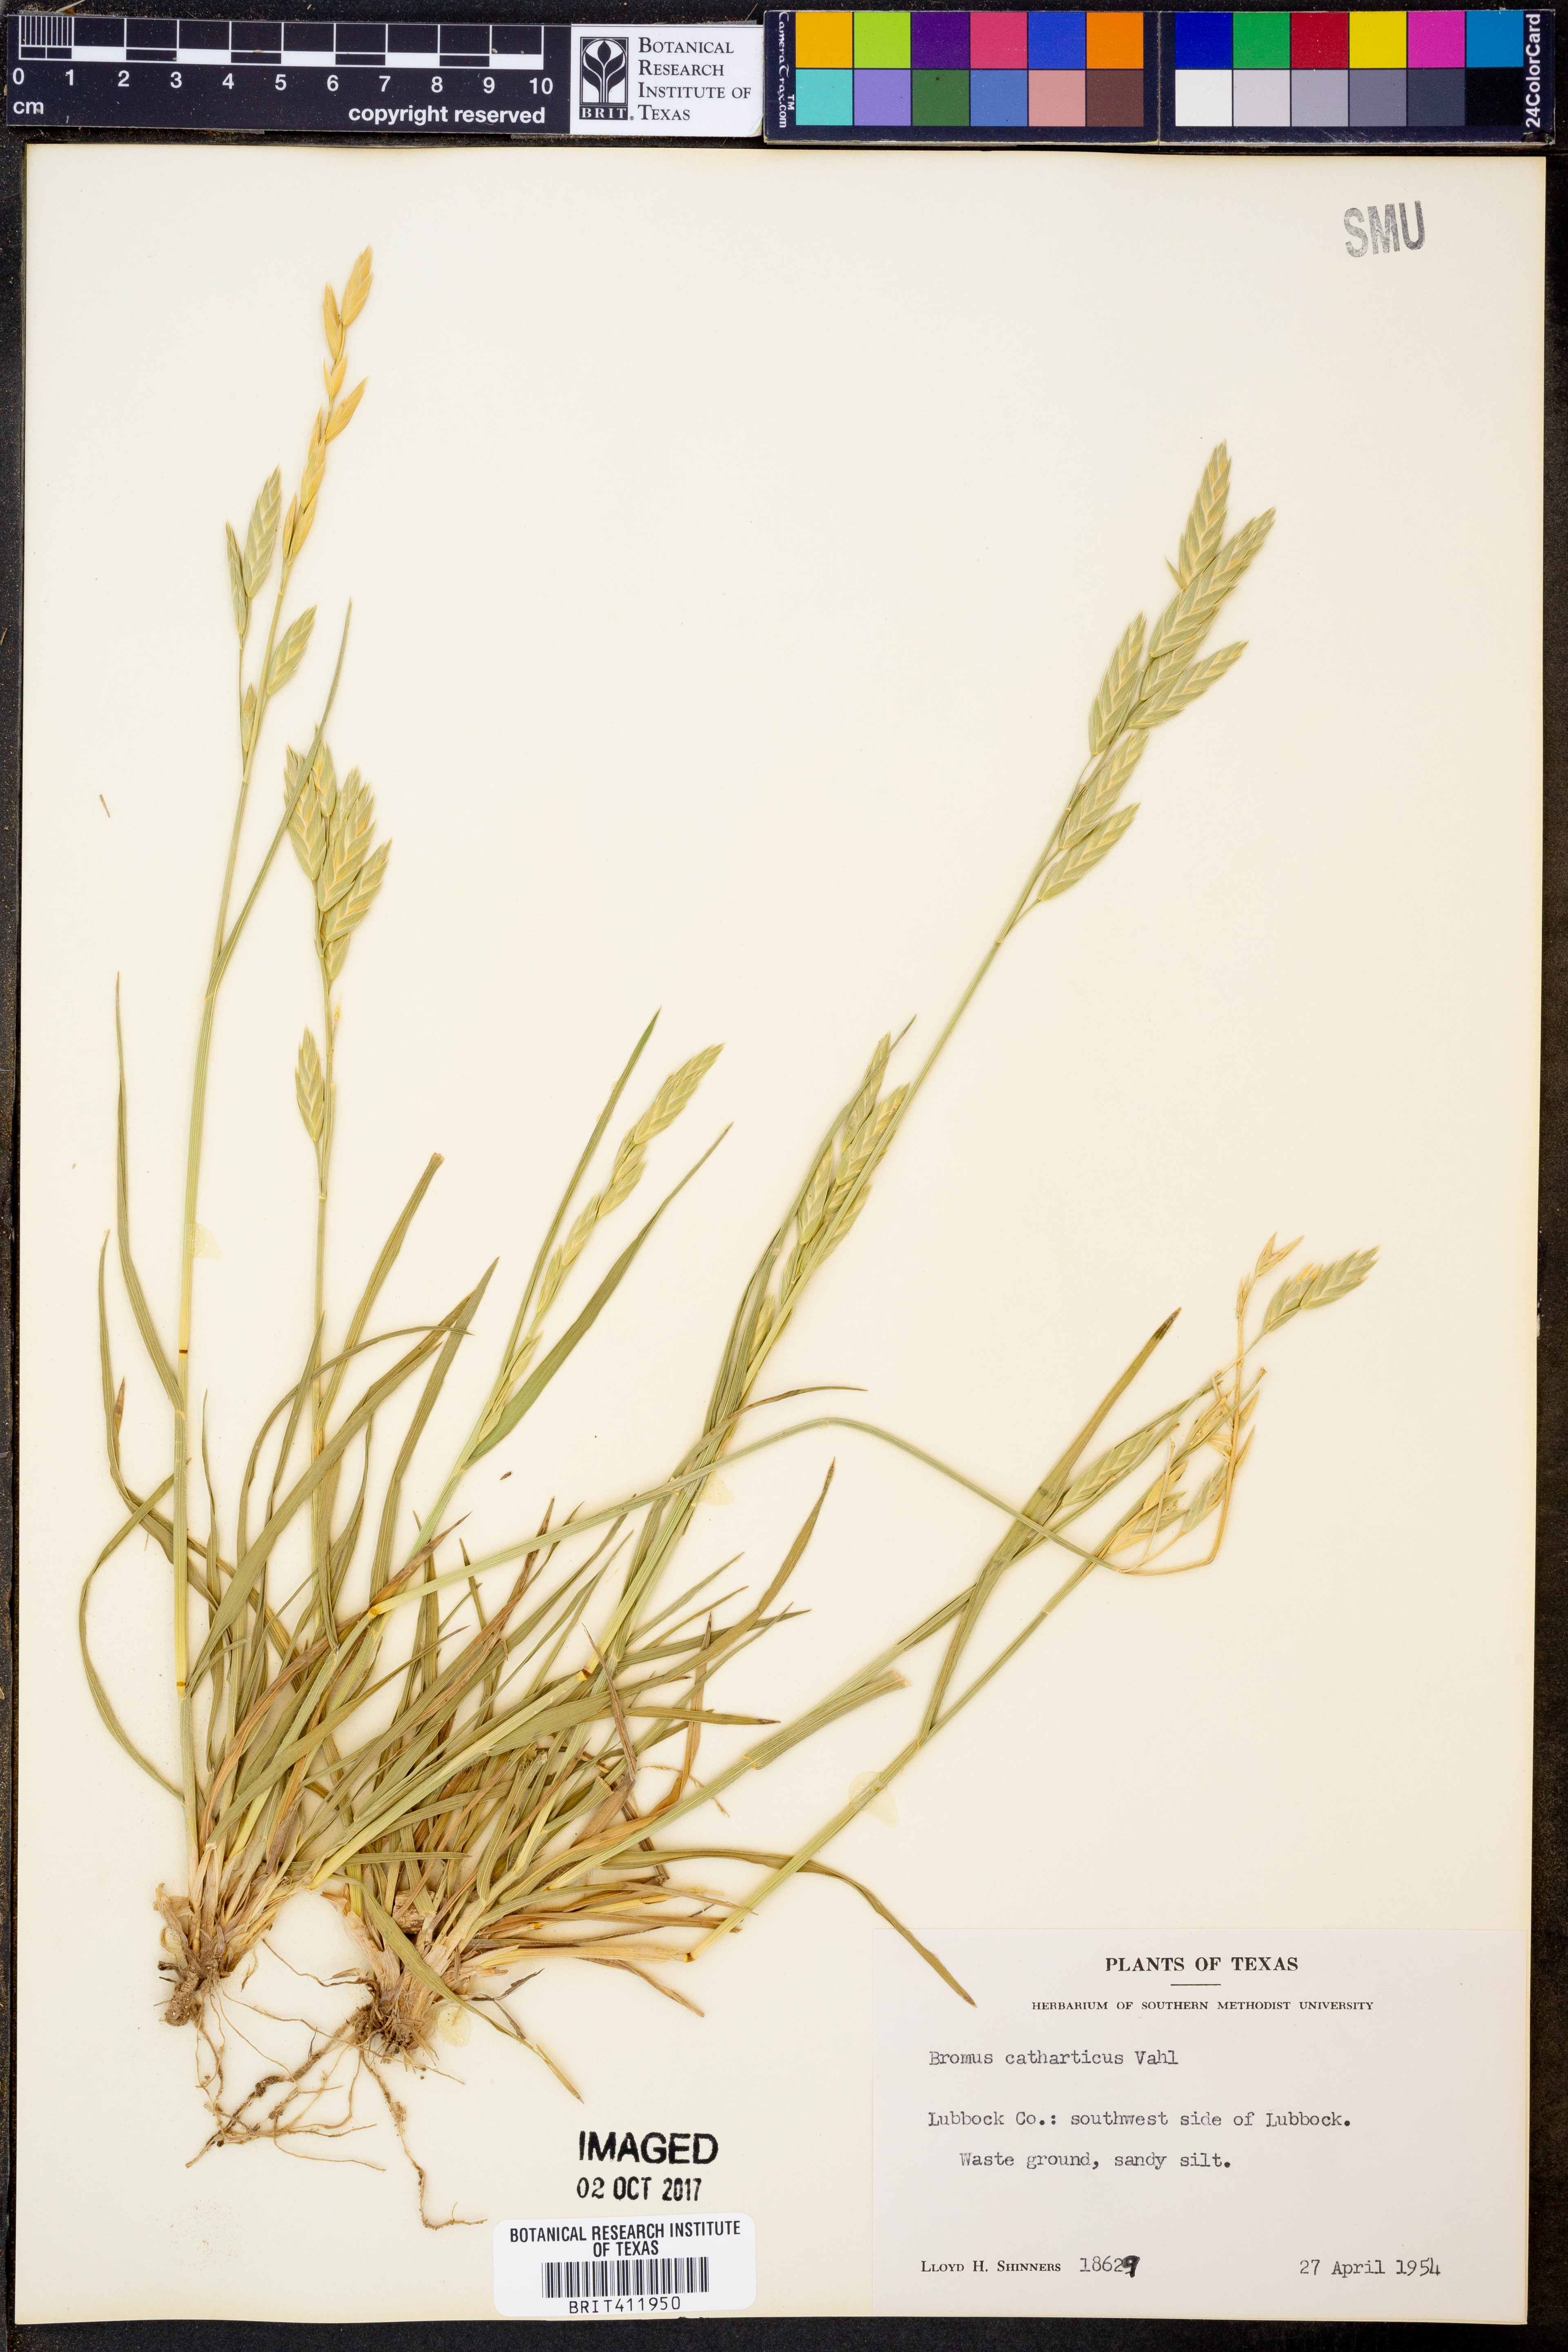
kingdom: Plantae
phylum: Tracheophyta
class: Liliopsida
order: Poales
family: Poaceae
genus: Bromus
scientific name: Bromus catharticus
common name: Rescuegrass
